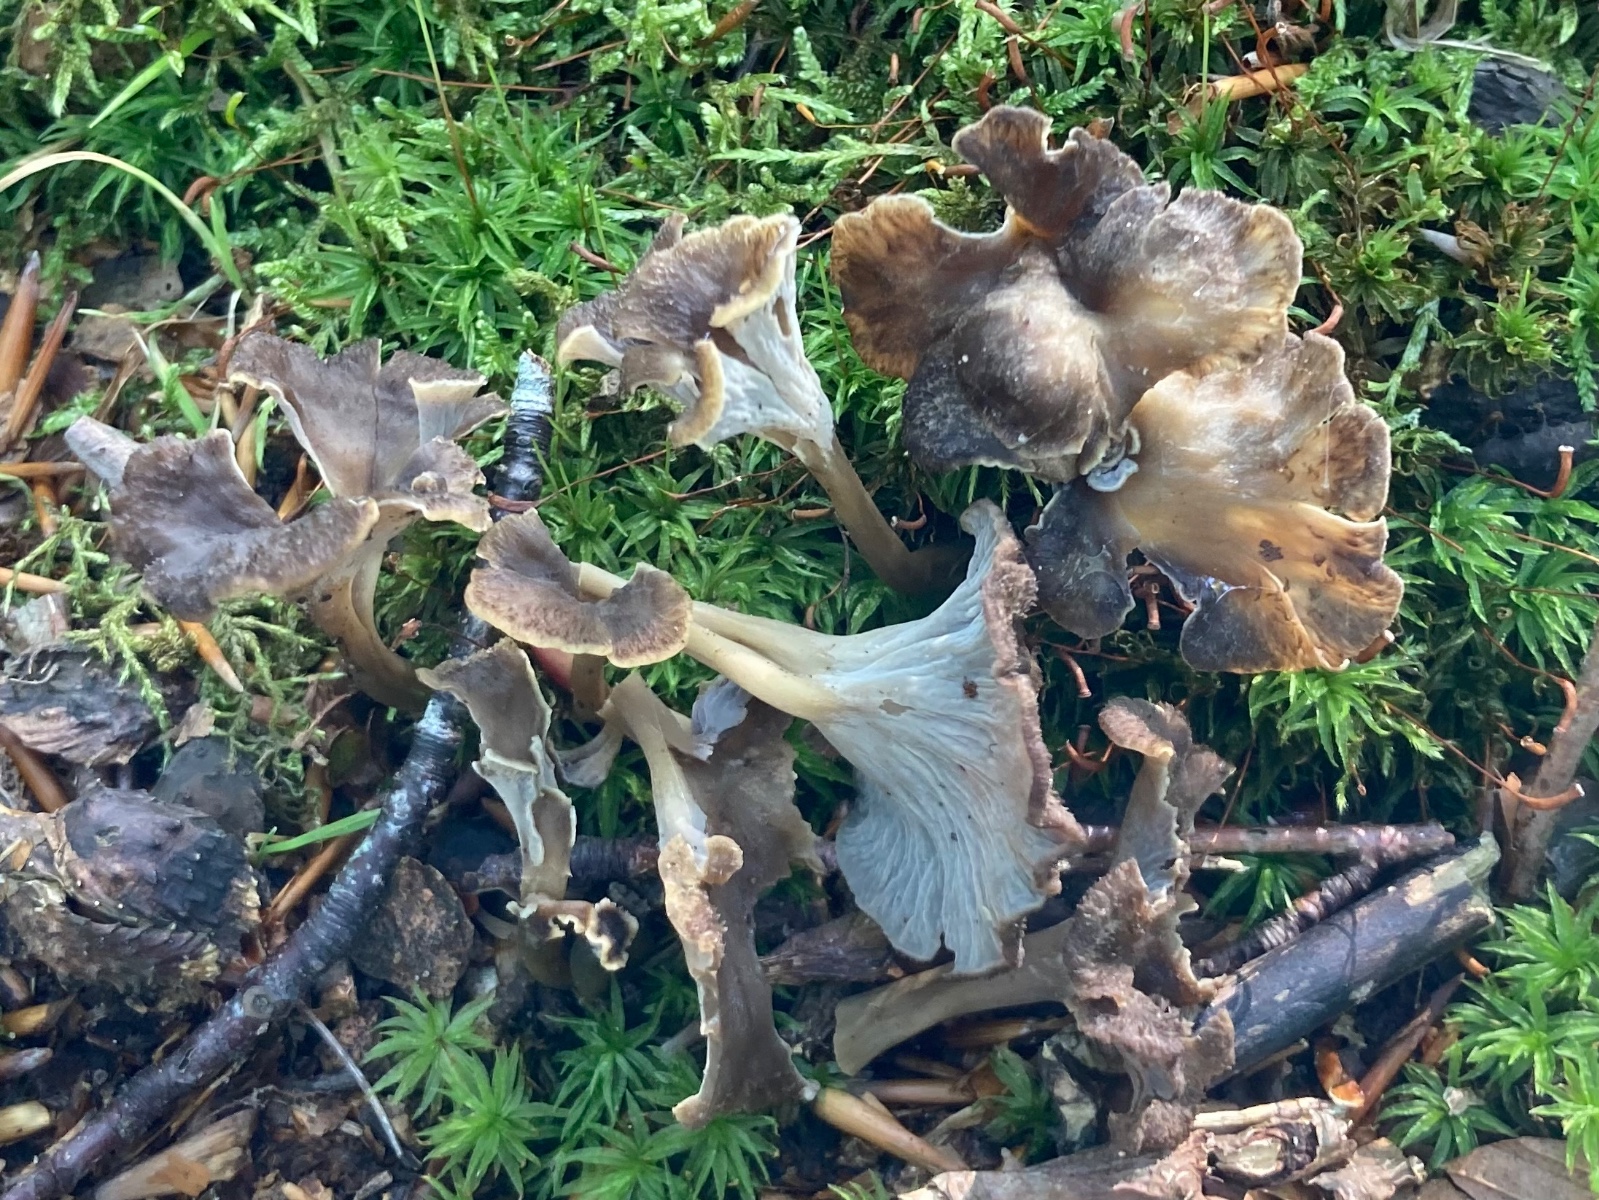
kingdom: Fungi
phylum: Basidiomycota
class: Agaricomycetes
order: Cantharellales
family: Hydnaceae
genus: Craterellus
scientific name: Craterellus undulatus
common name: liden kantarel
